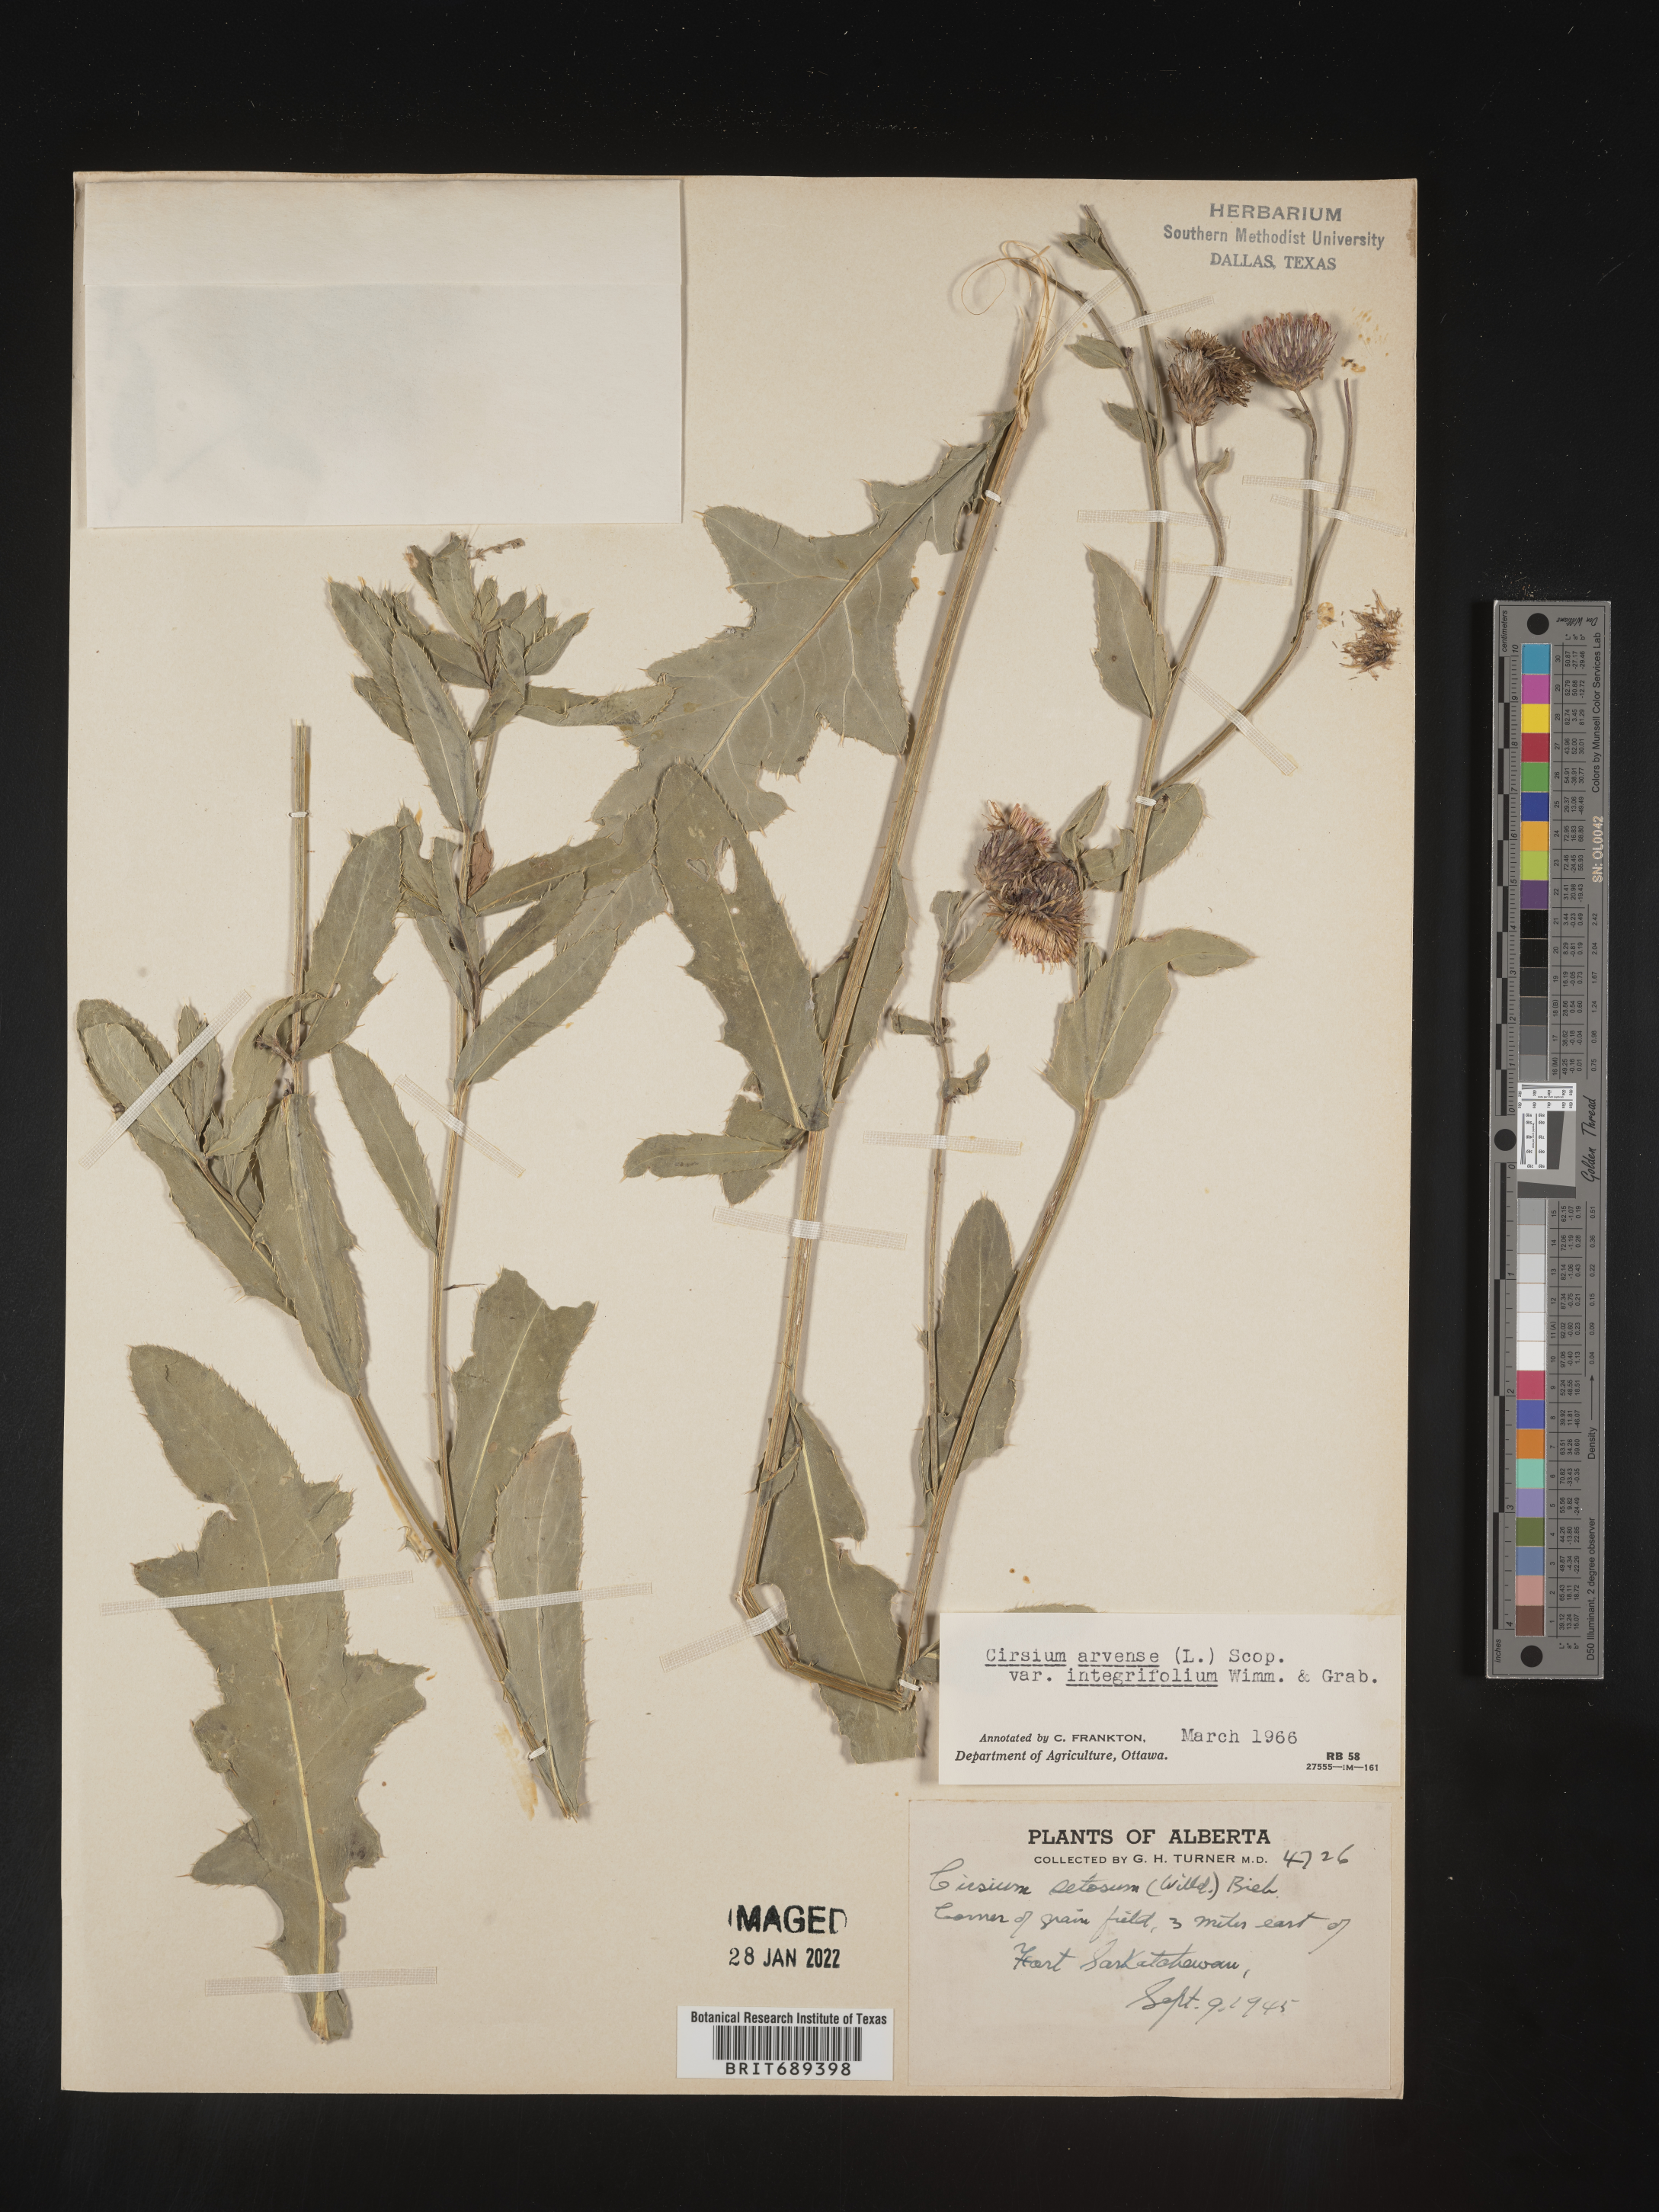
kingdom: Plantae
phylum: Tracheophyta
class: Magnoliopsida
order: Asterales
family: Asteraceae
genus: Cirsium
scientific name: Cirsium arvense
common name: Creeping thistle
